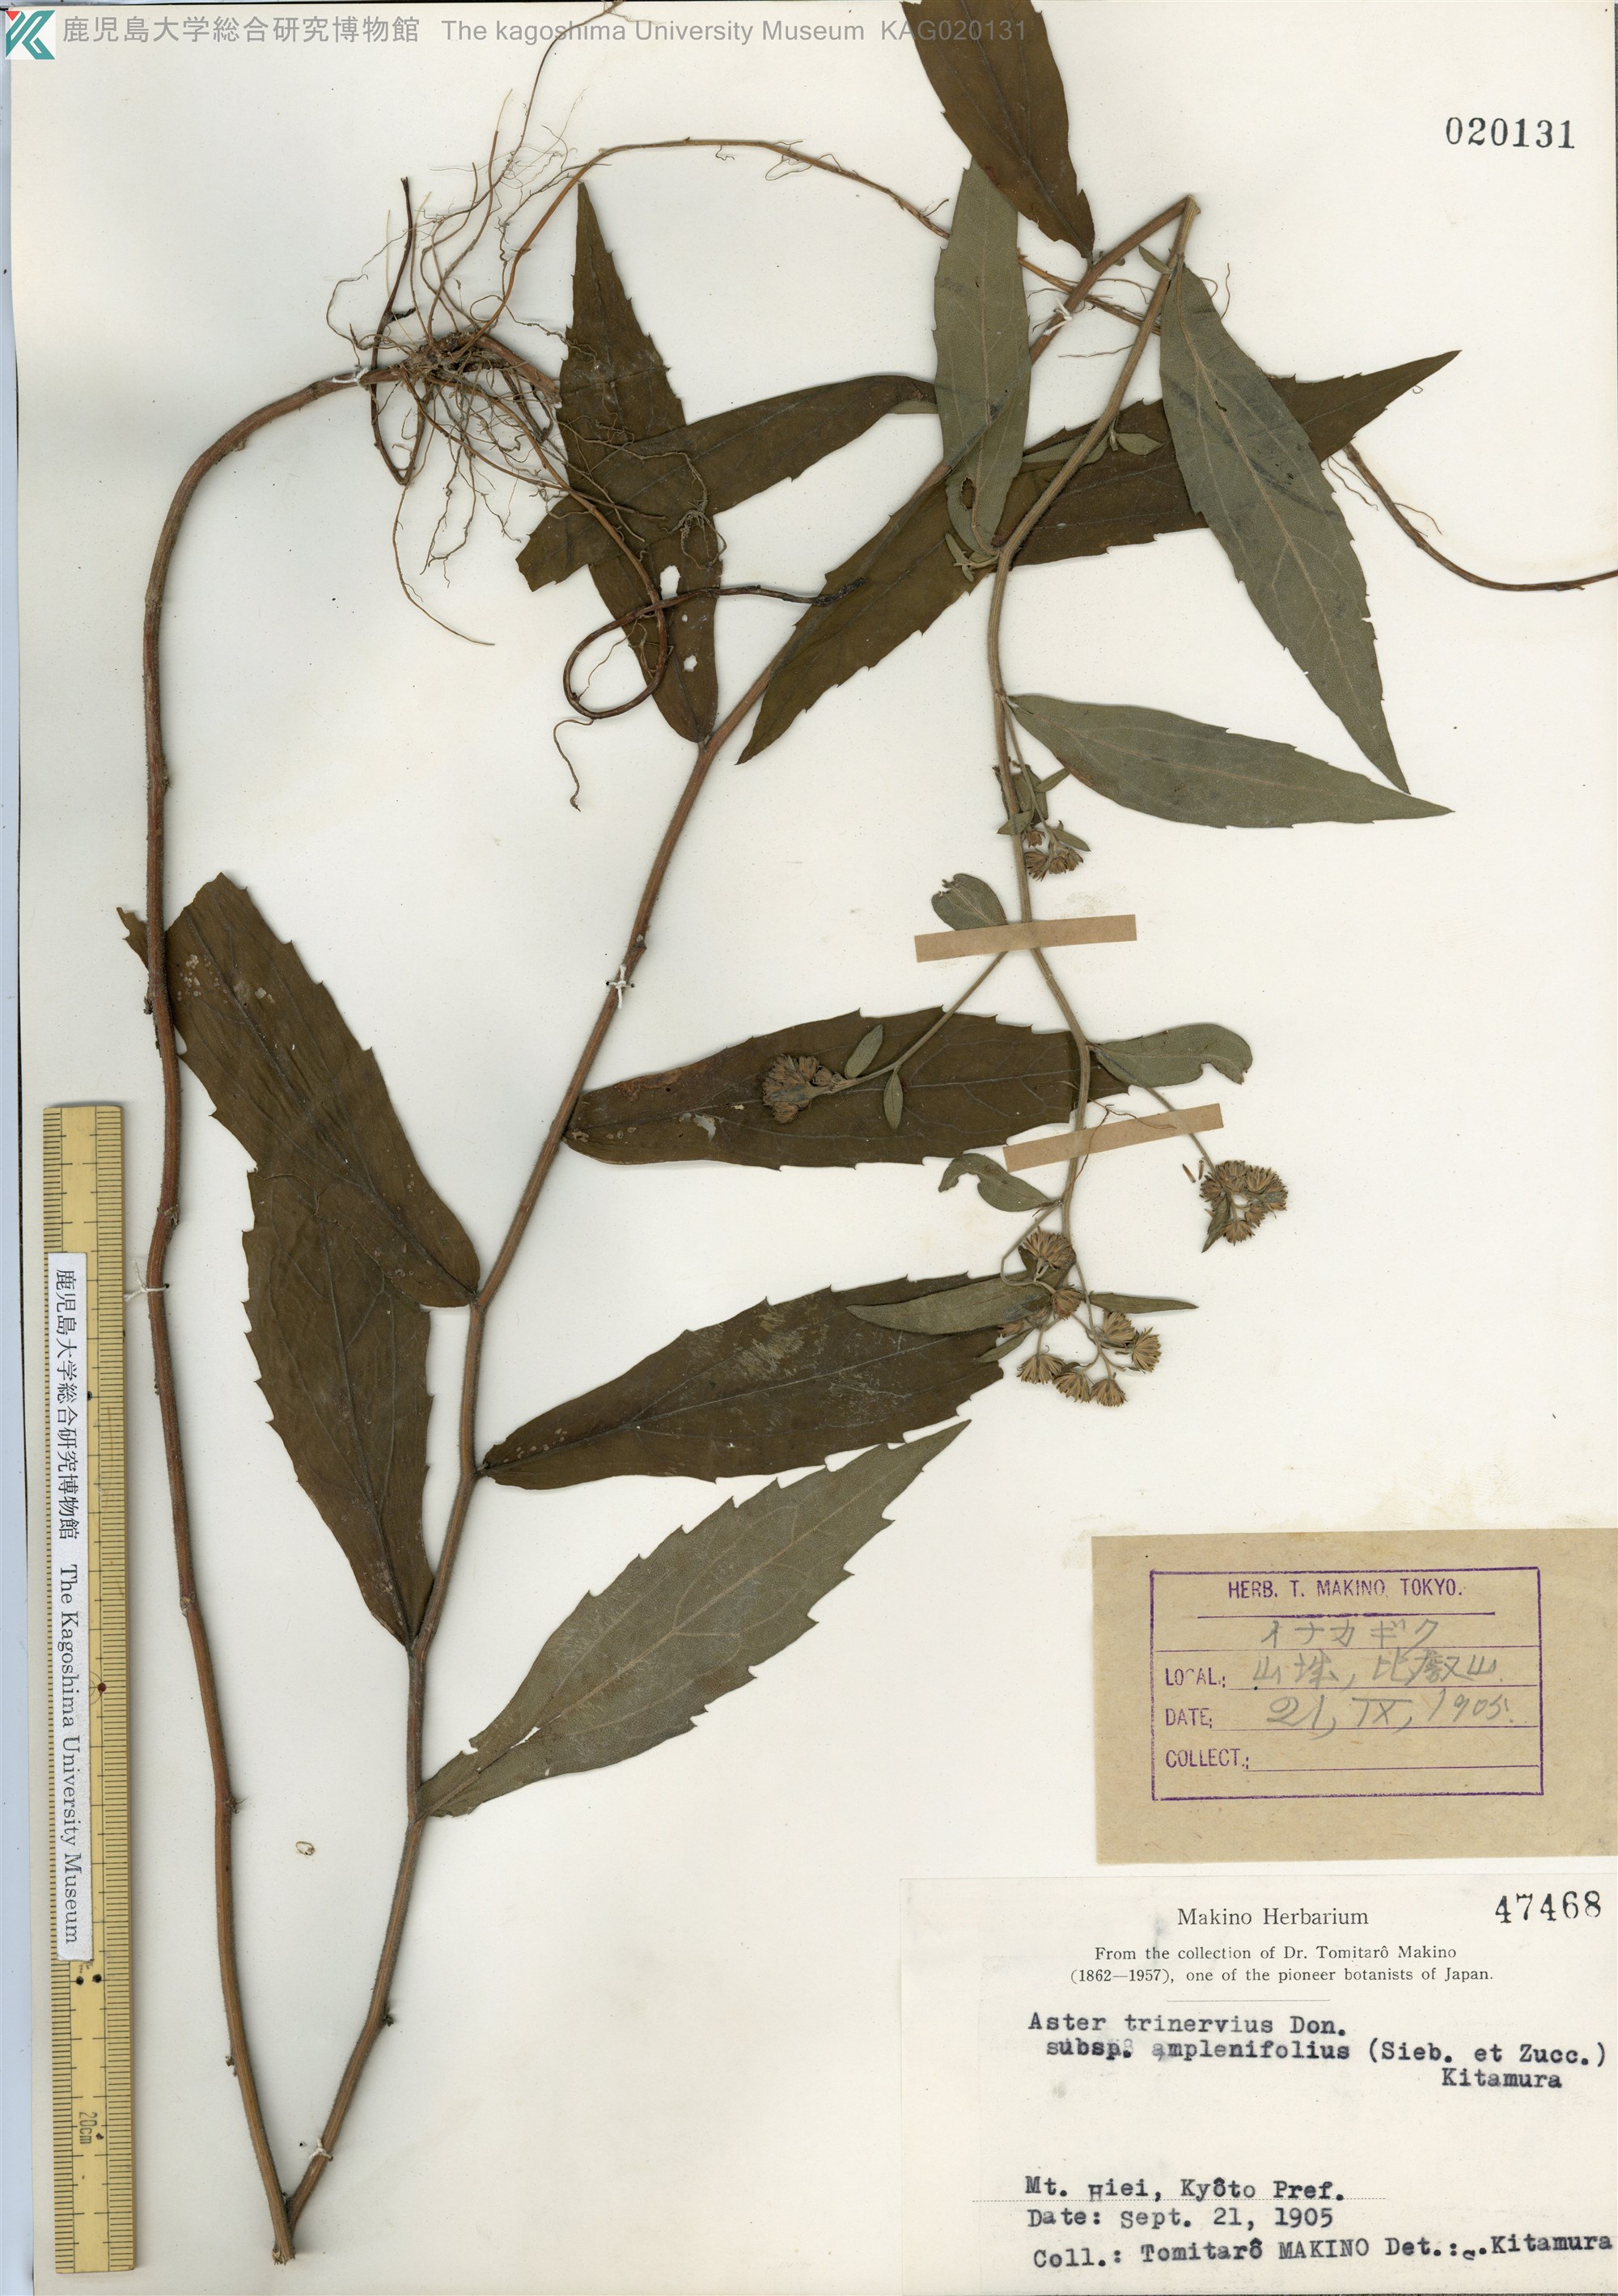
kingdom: Plantae
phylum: Tracheophyta
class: Magnoliopsida
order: Asterales
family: Asteraceae
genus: Aster
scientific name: Aster semiamplexicaulis
